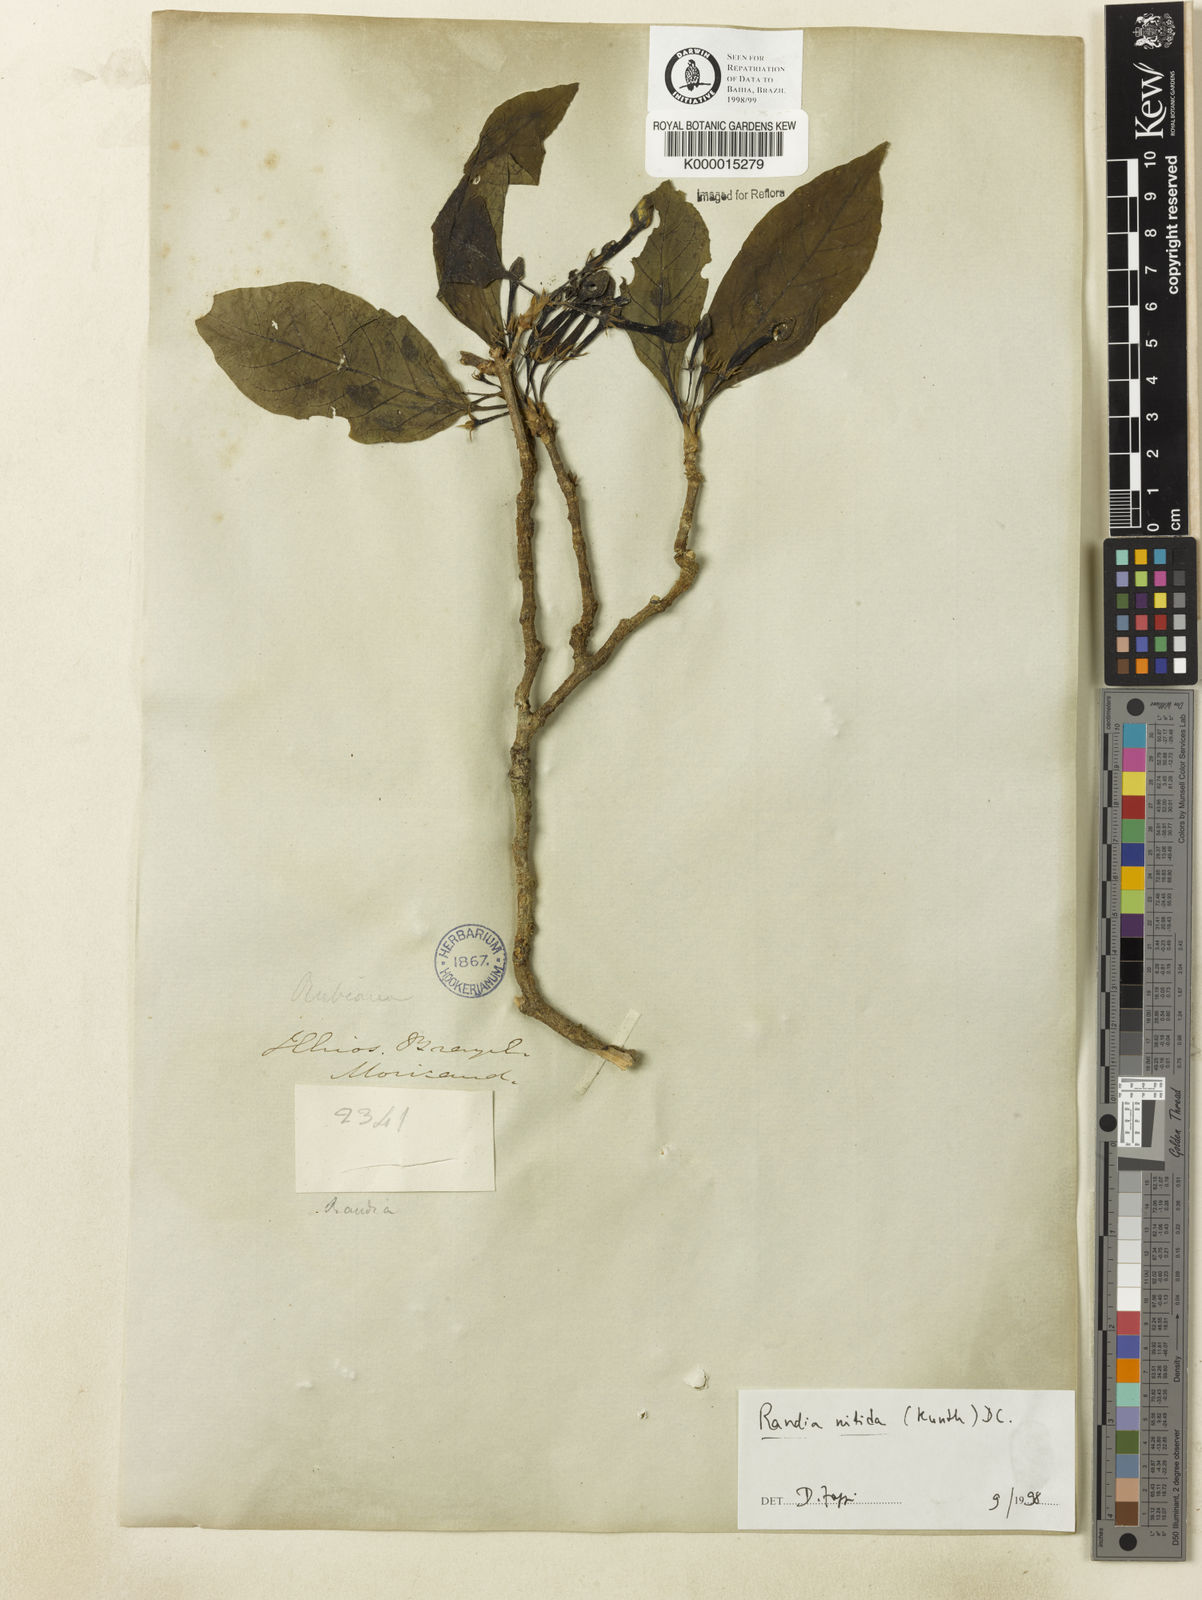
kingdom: Plantae
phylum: Tracheophyta
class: Magnoliopsida
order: Gentianales
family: Rubiaceae
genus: Randia
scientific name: Randia nitida
